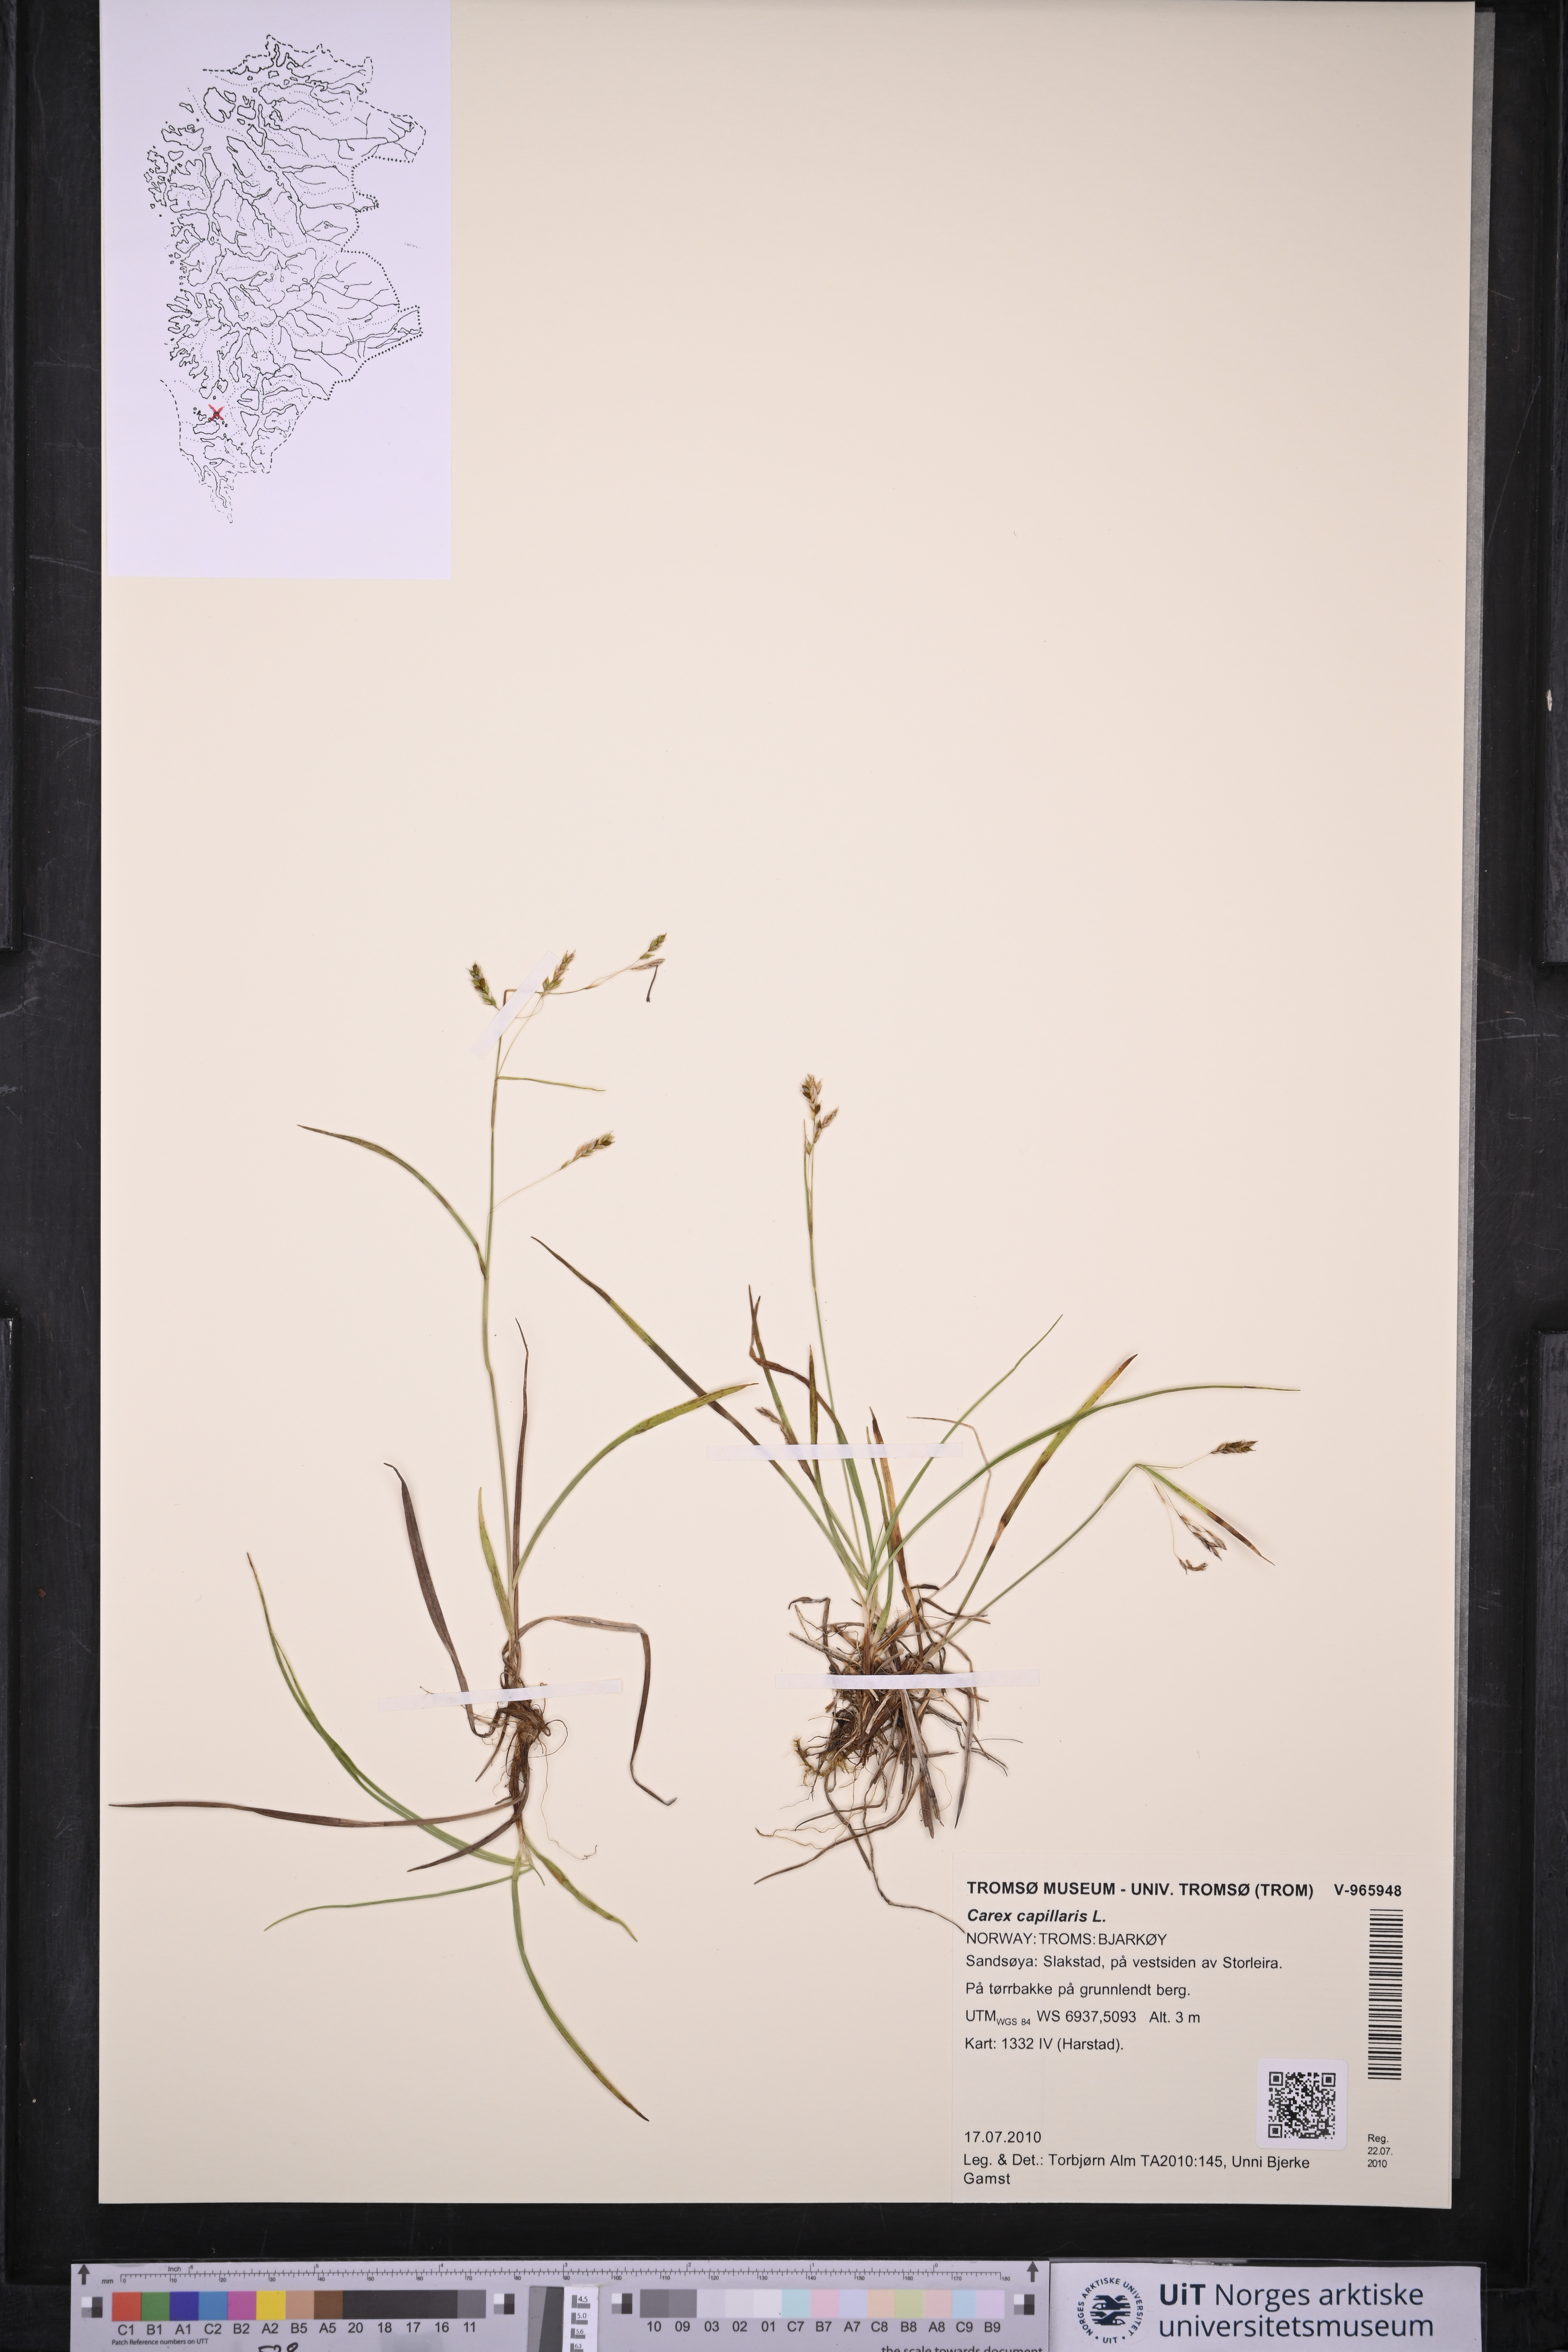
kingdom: Plantae
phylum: Tracheophyta
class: Liliopsida
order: Poales
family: Cyperaceae
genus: Carex
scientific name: Carex capillaris
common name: Hair sedge
